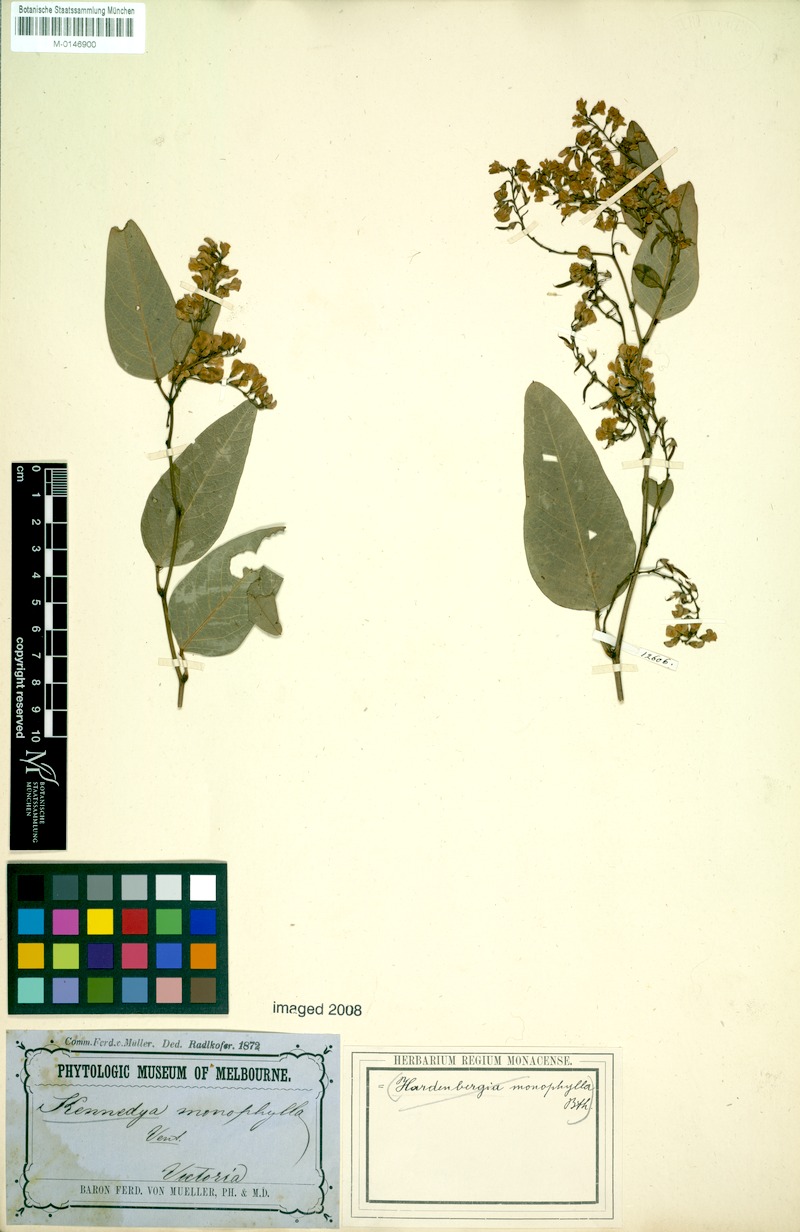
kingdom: Plantae
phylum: Tracheophyta
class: Magnoliopsida
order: Fabales
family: Fabaceae
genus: Hardenbergia
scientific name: Hardenbergia violacea
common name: Coral-pea
